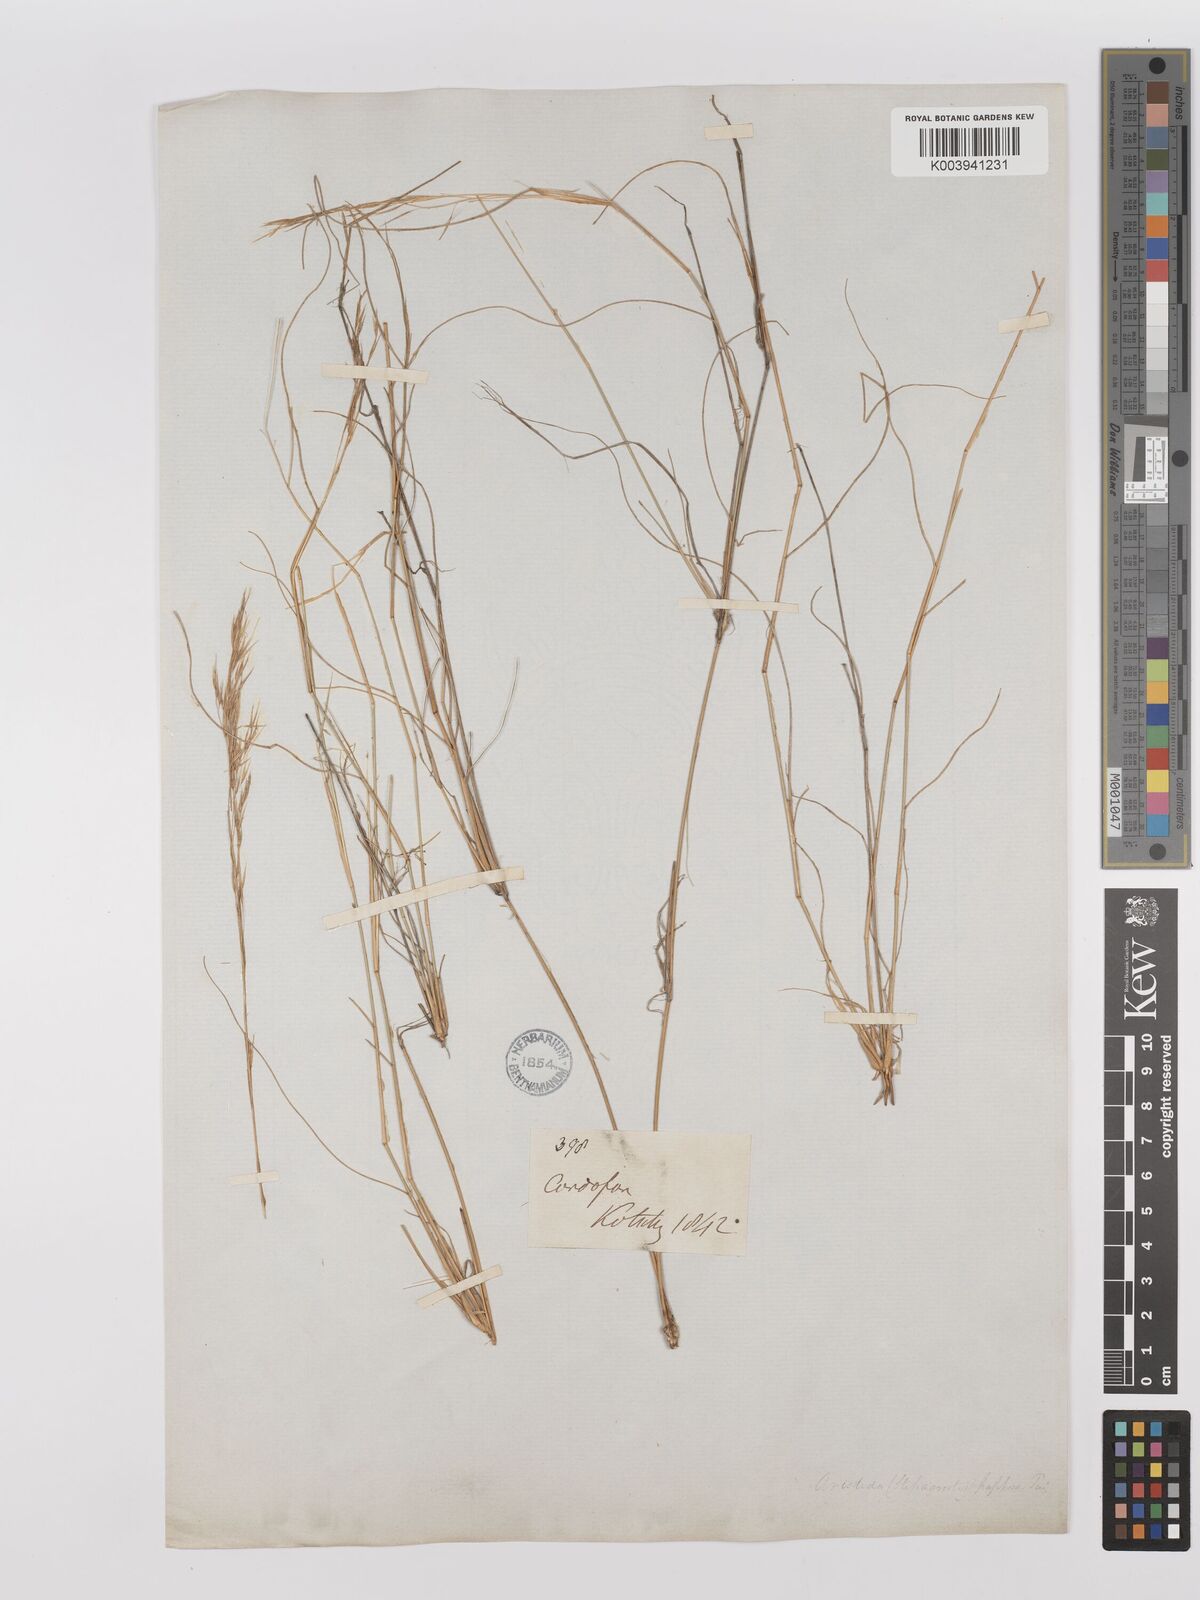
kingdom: Plantae
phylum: Tracheophyta
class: Liliopsida
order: Poales
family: Poaceae
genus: Stipagrostis
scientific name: Stipagrostis uniplumis
